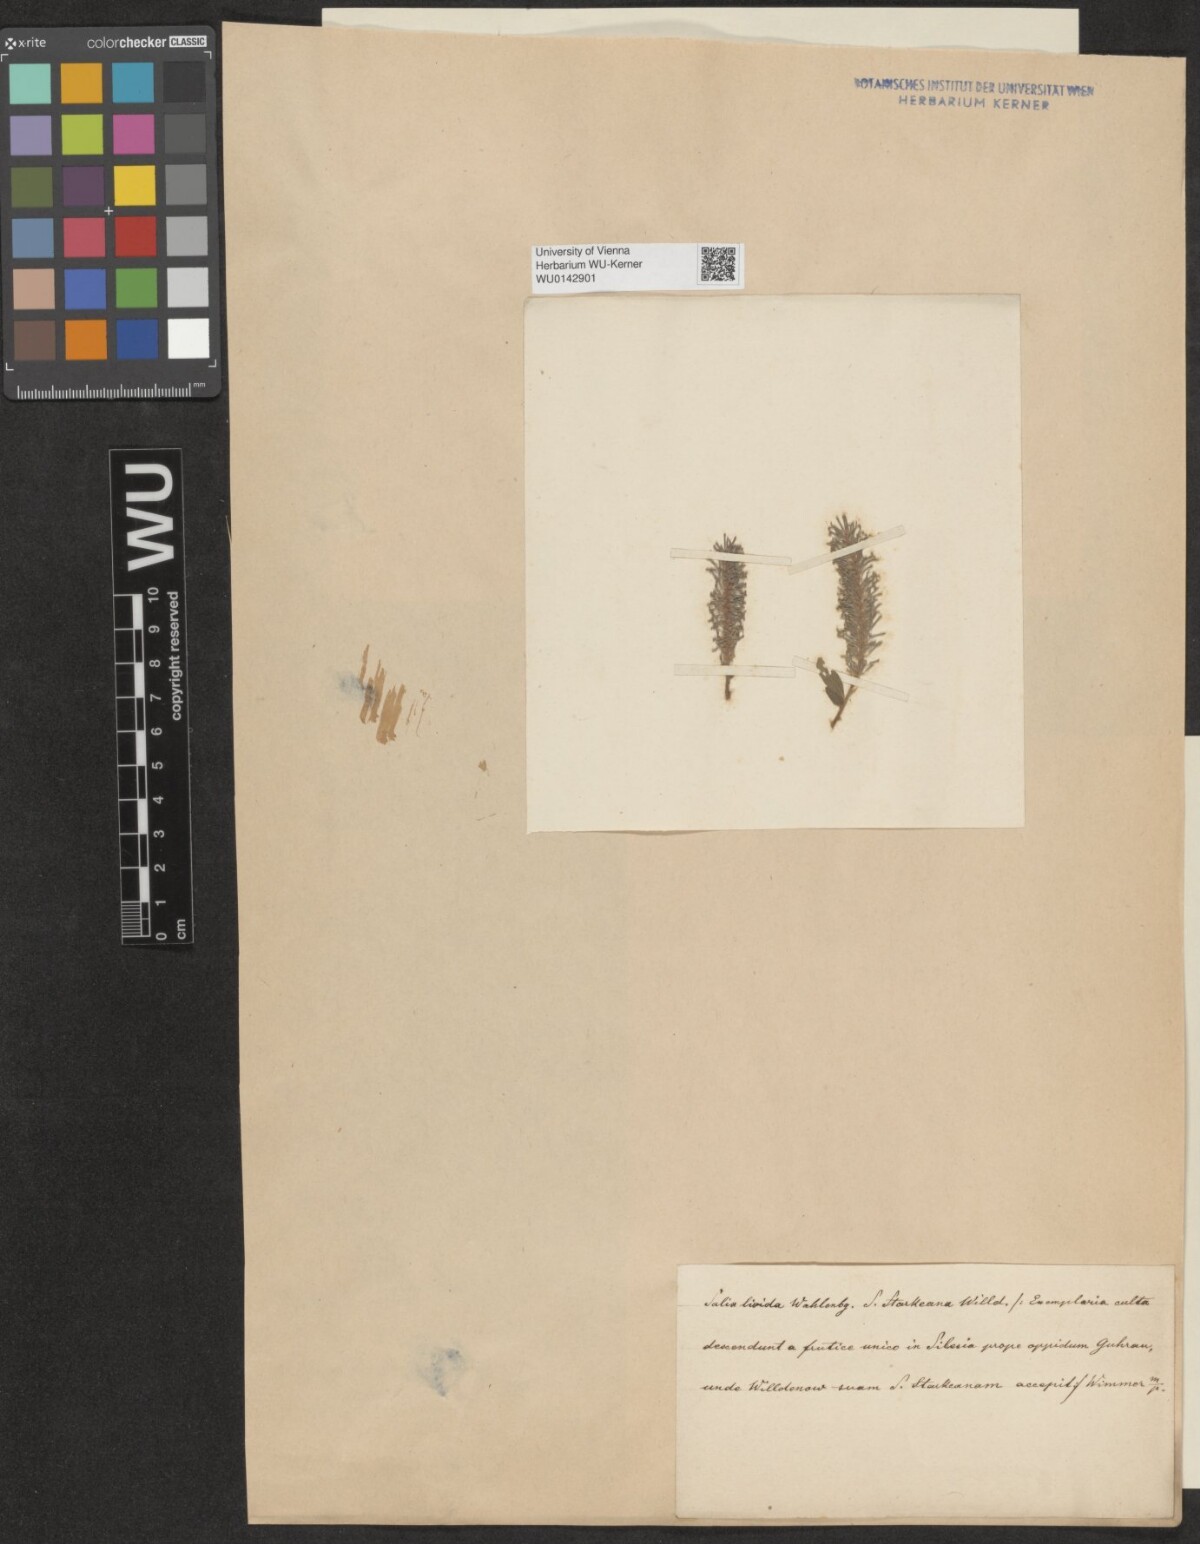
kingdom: Plantae
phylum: Tracheophyta
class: Magnoliopsida
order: Malpighiales
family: Salicaceae
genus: Salix
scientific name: Salix starkeana
